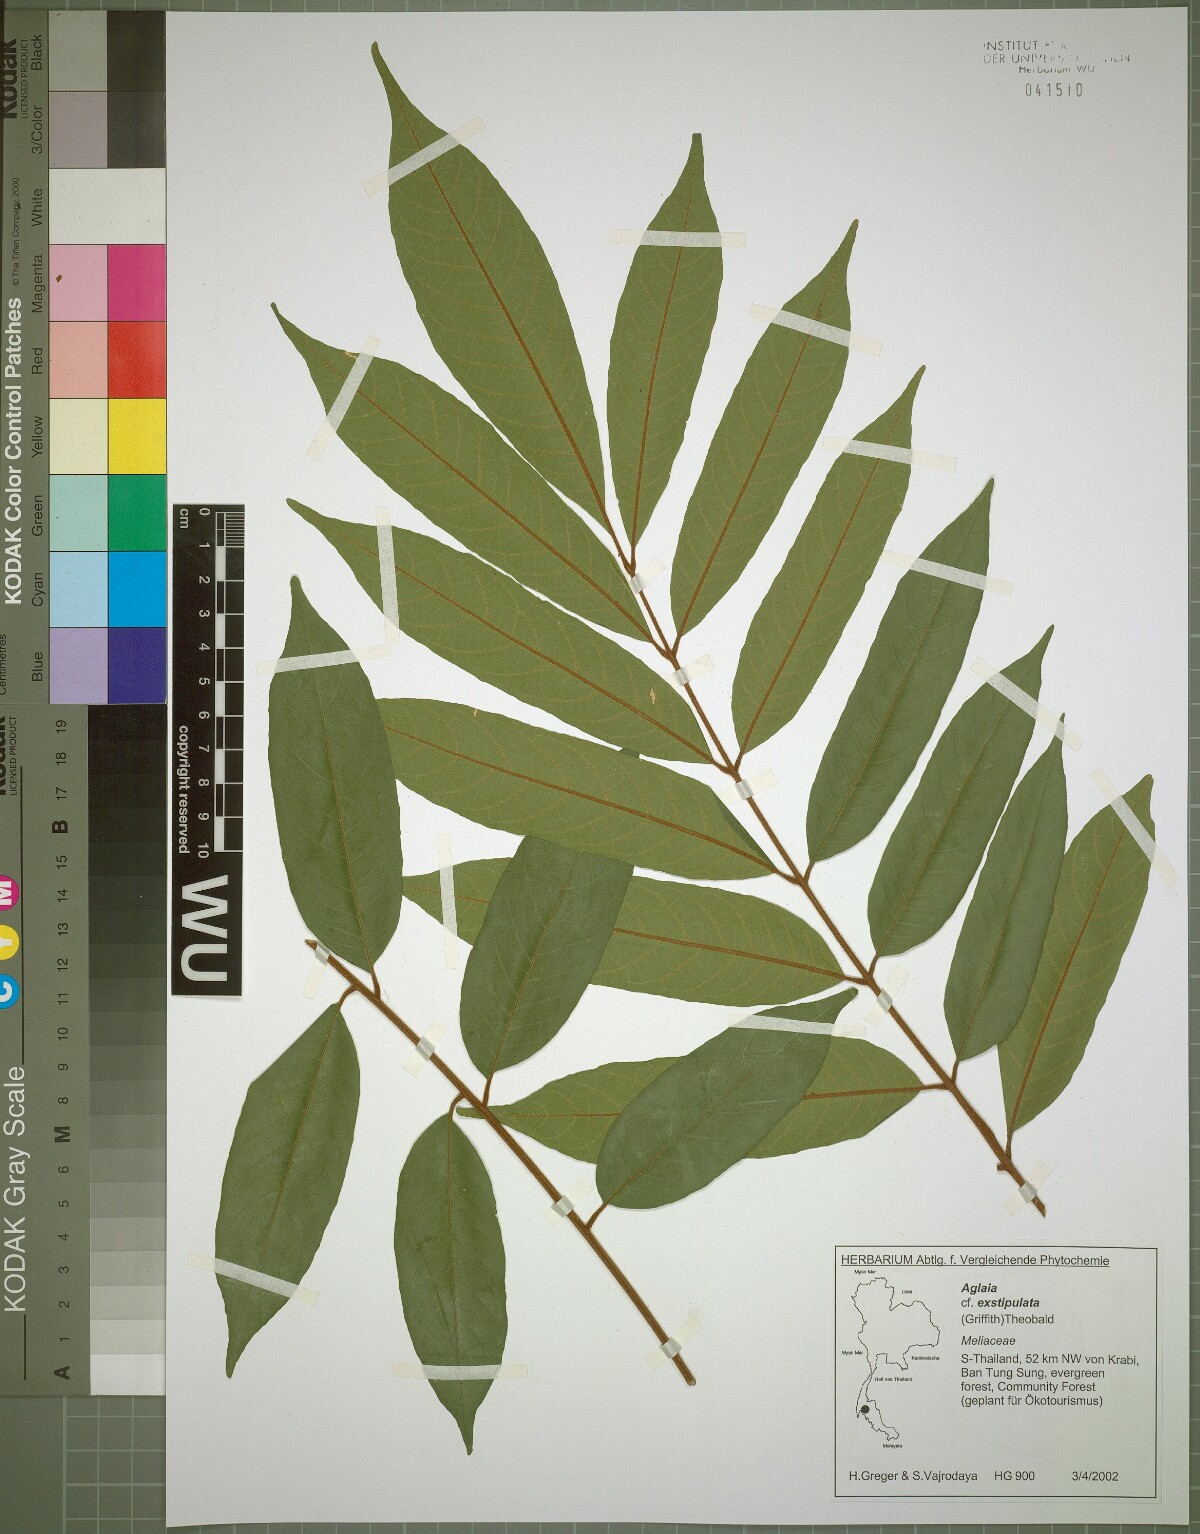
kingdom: Plantae
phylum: Tracheophyta
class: Magnoliopsida
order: Sapindales
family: Meliaceae
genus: Aglaia
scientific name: Aglaia exstipulata
